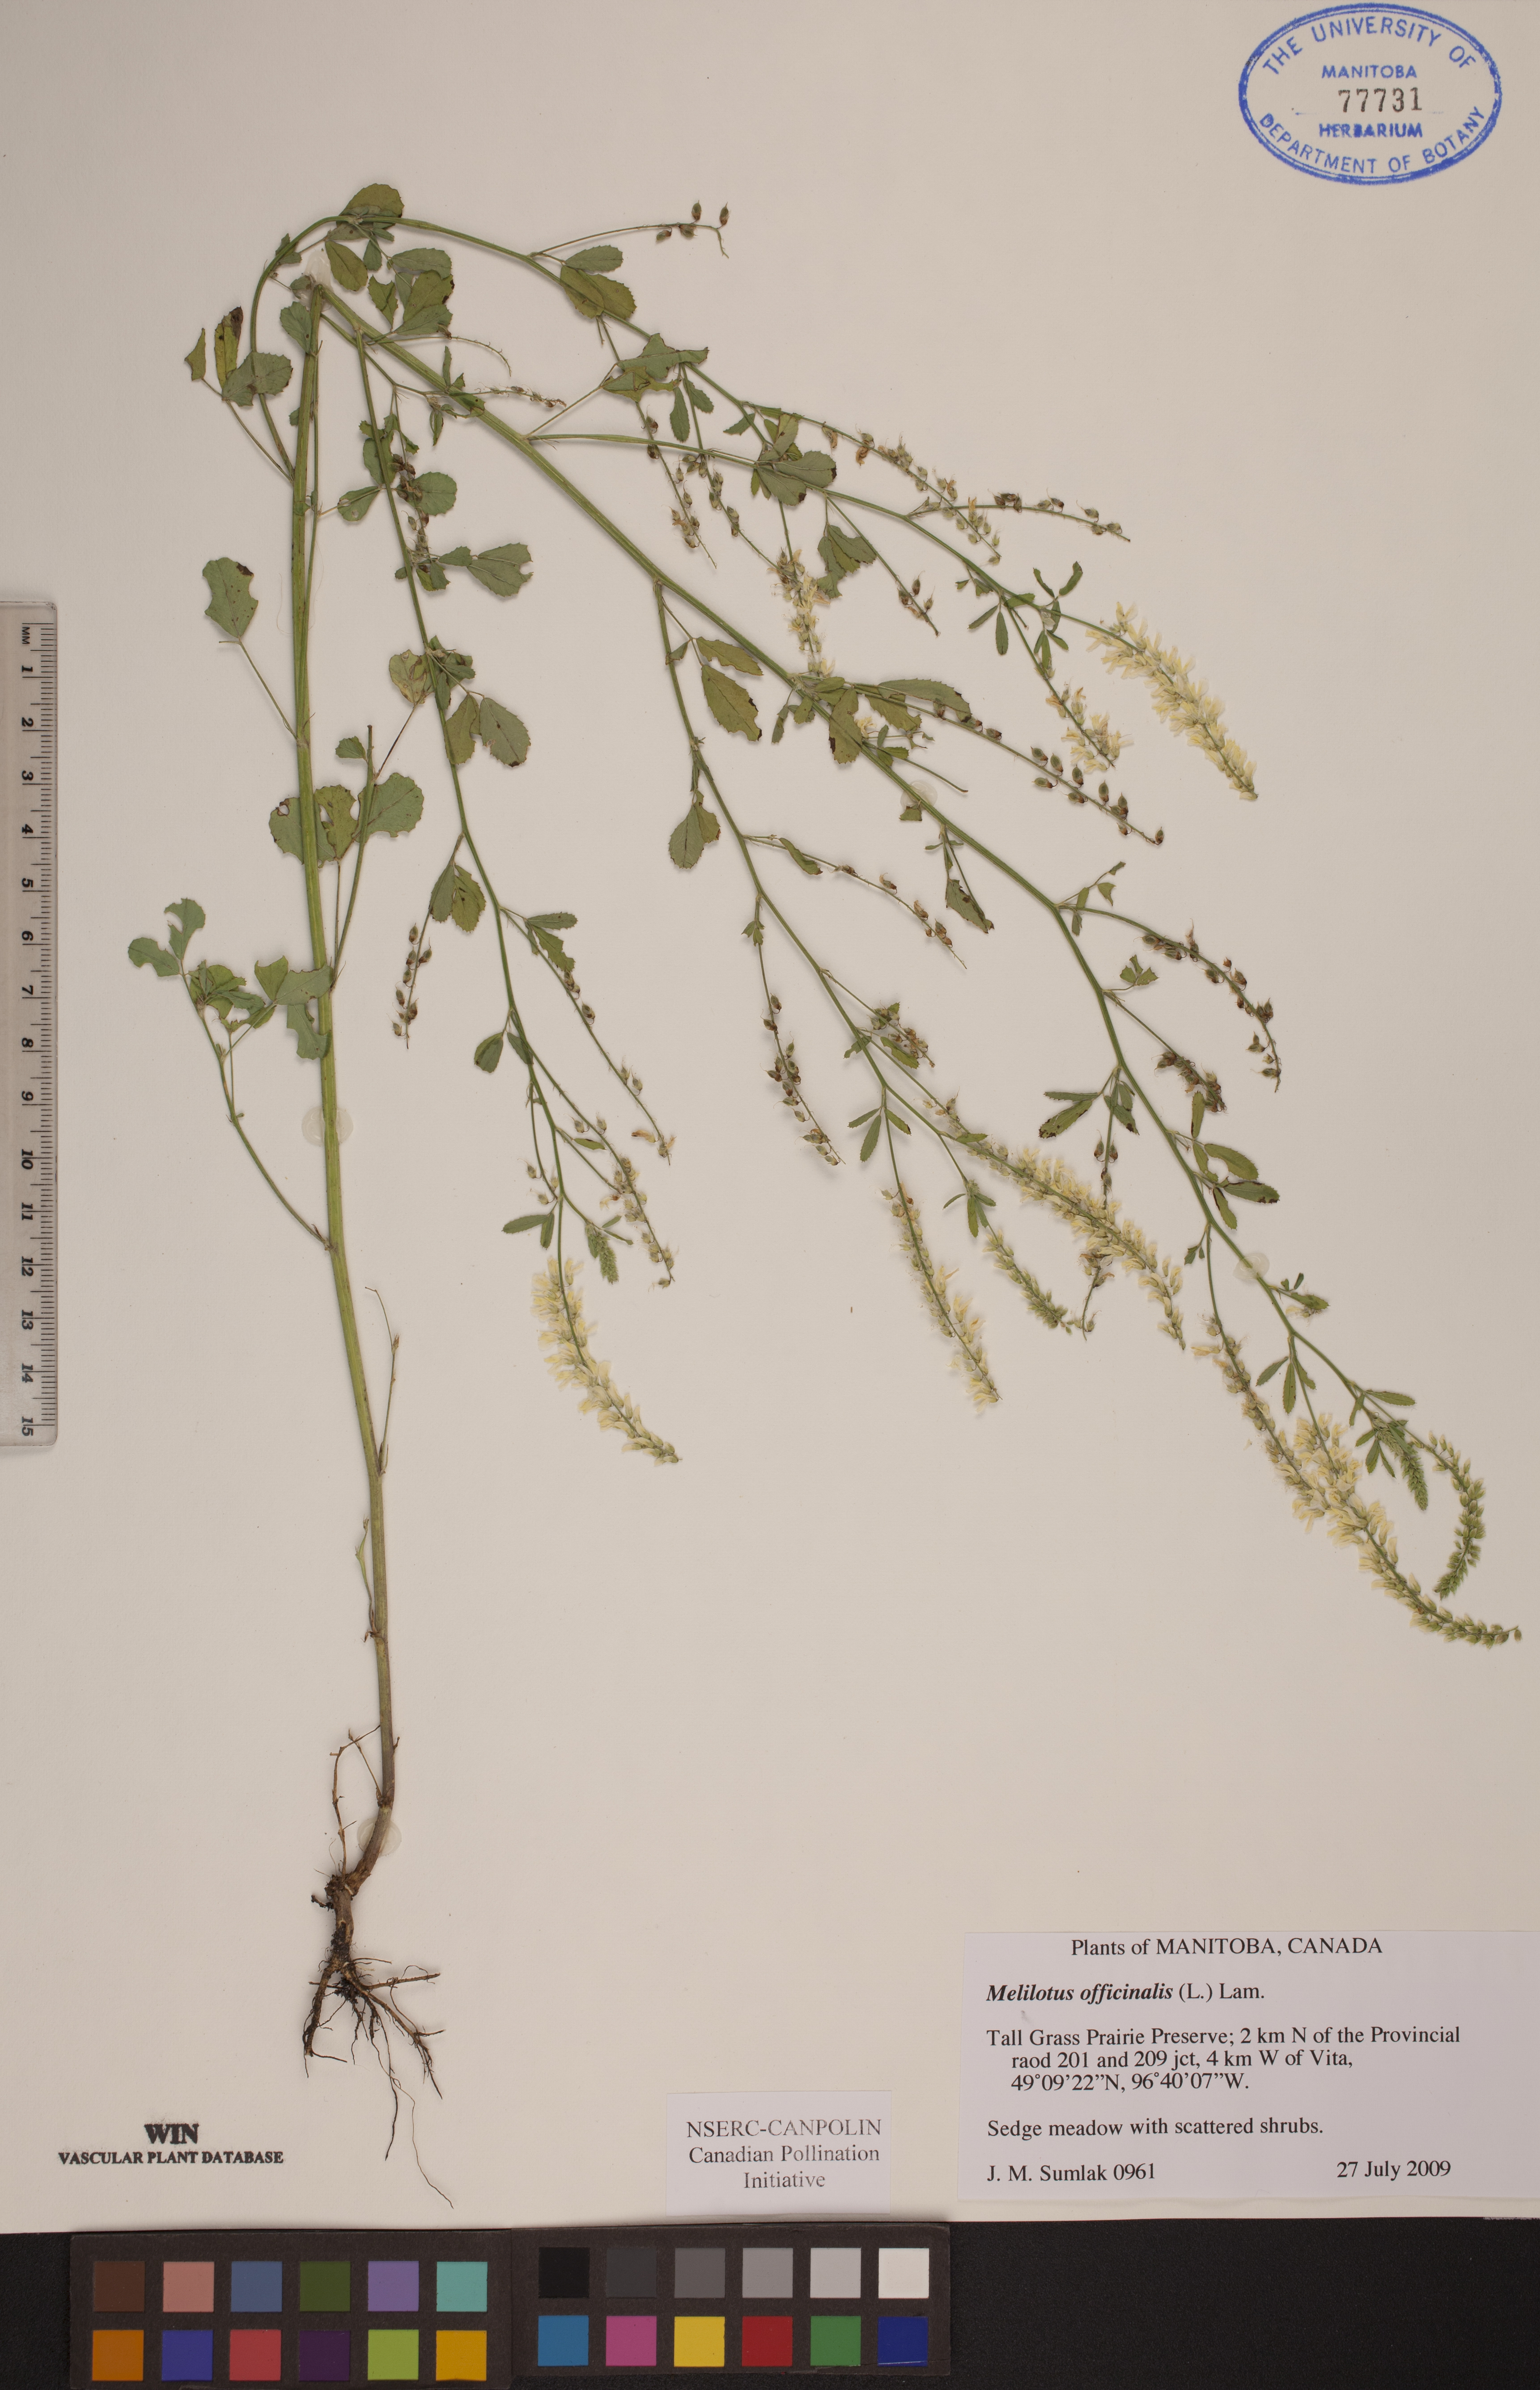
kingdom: Plantae
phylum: Tracheophyta
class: Magnoliopsida
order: Fabales
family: Fabaceae
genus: Melilotus
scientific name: Melilotus officinalis
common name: Sweetclover
